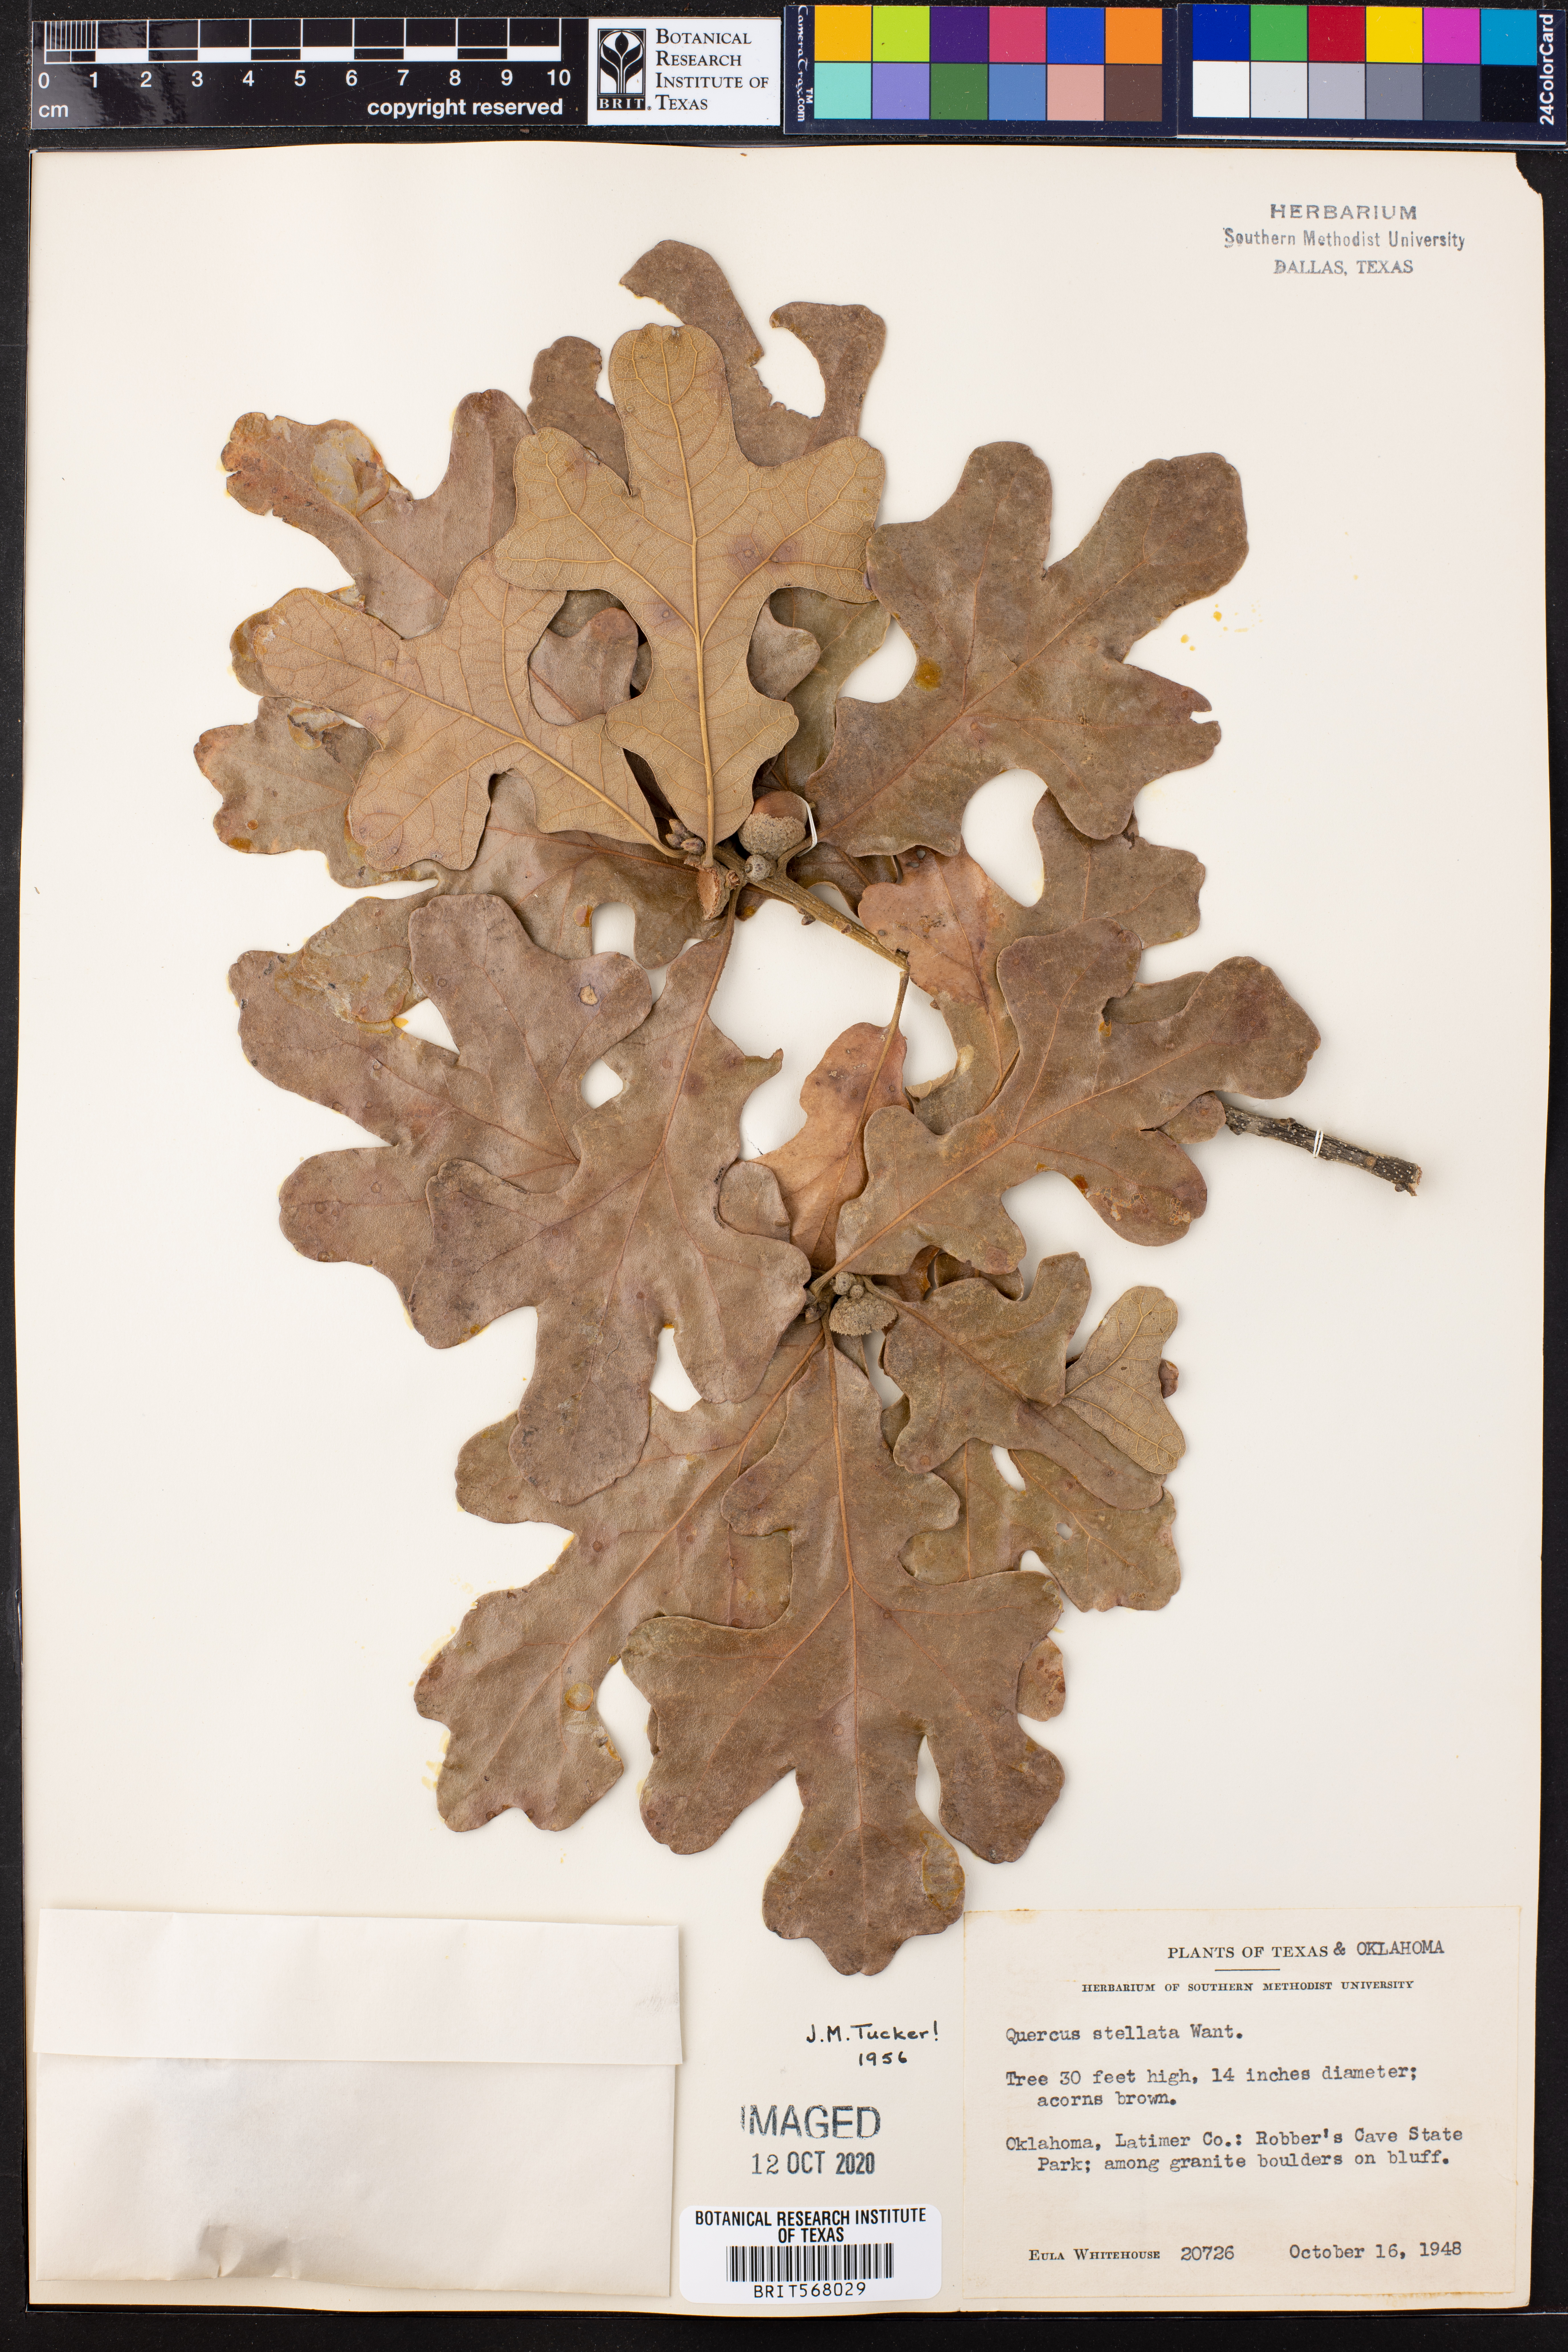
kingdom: Plantae
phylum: Tracheophyta
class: Magnoliopsida
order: Fagales
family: Fagaceae
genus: Quercus
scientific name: Quercus stellata
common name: Post oak
